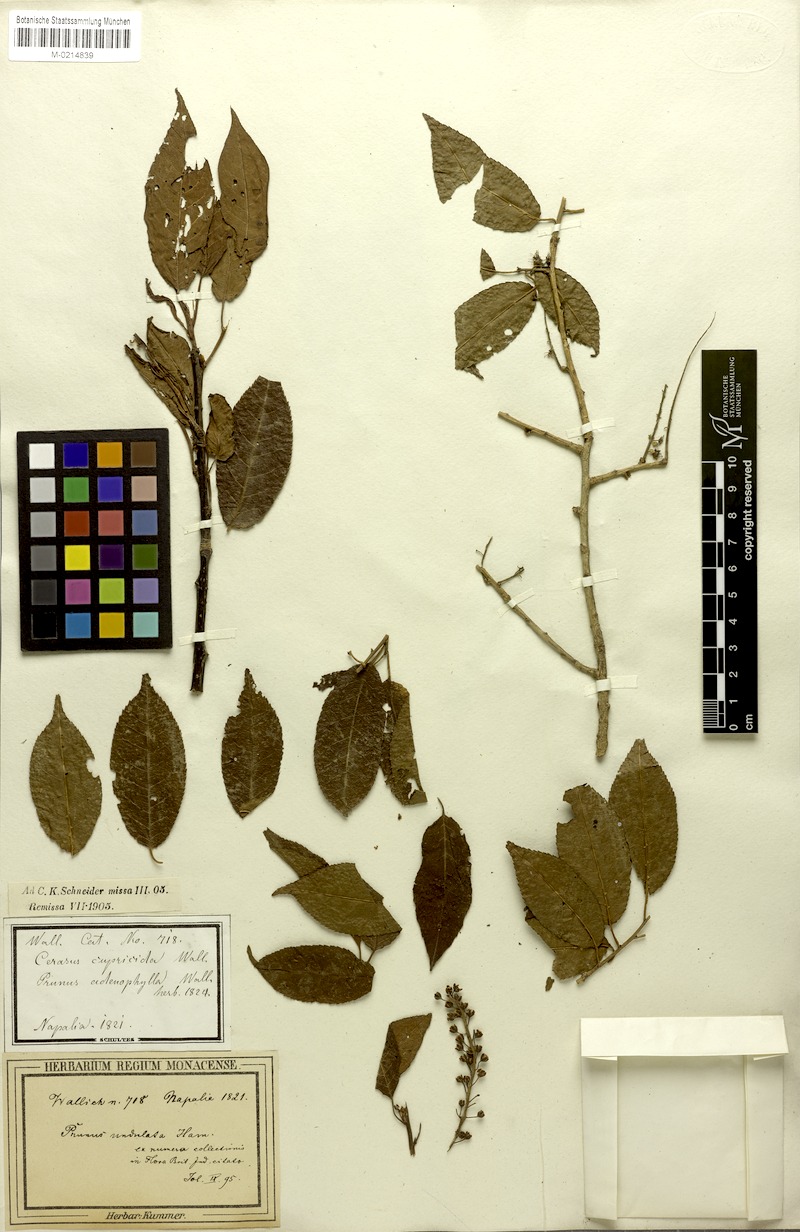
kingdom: Plantae
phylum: Tracheophyta
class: Magnoliopsida
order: Rosales
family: Rosaceae
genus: Prunus
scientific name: Prunus buergeriana
